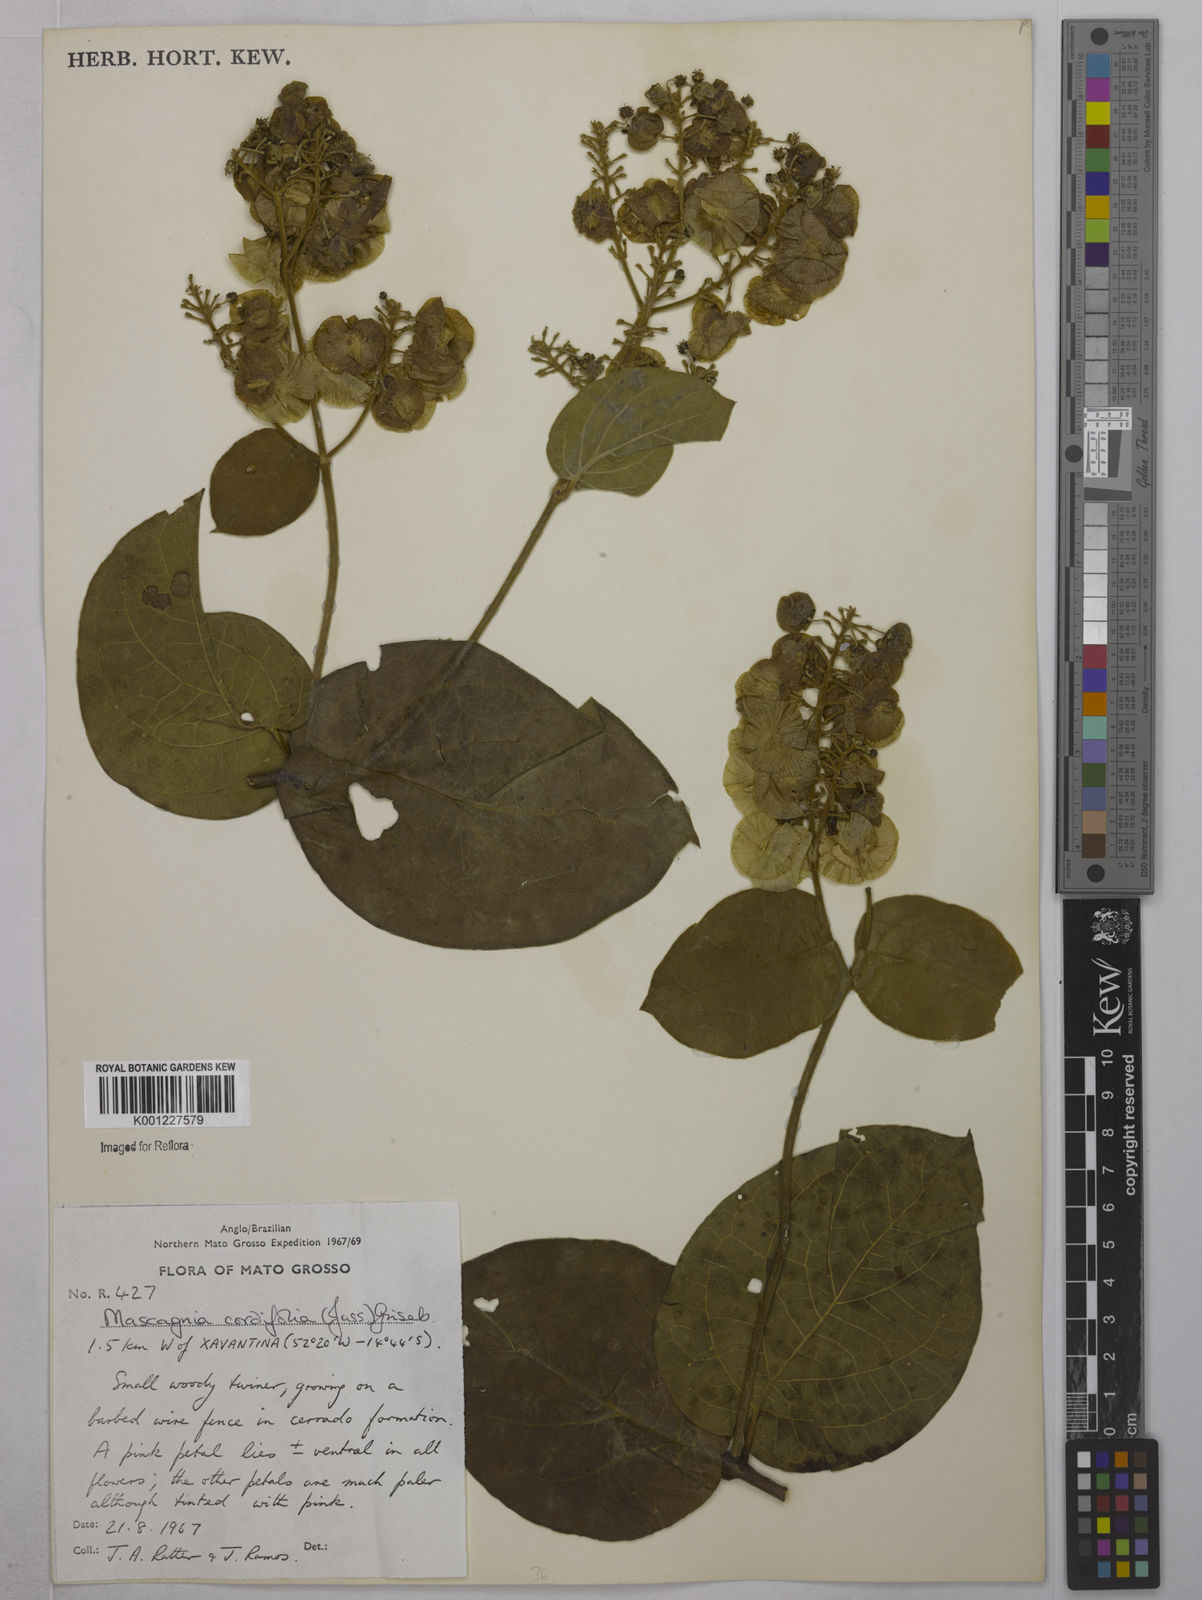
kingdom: Plantae
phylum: Tracheophyta
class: Magnoliopsida
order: Malpighiales
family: Malpighiaceae
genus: Mascagnia
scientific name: Mascagnia cordifolia
